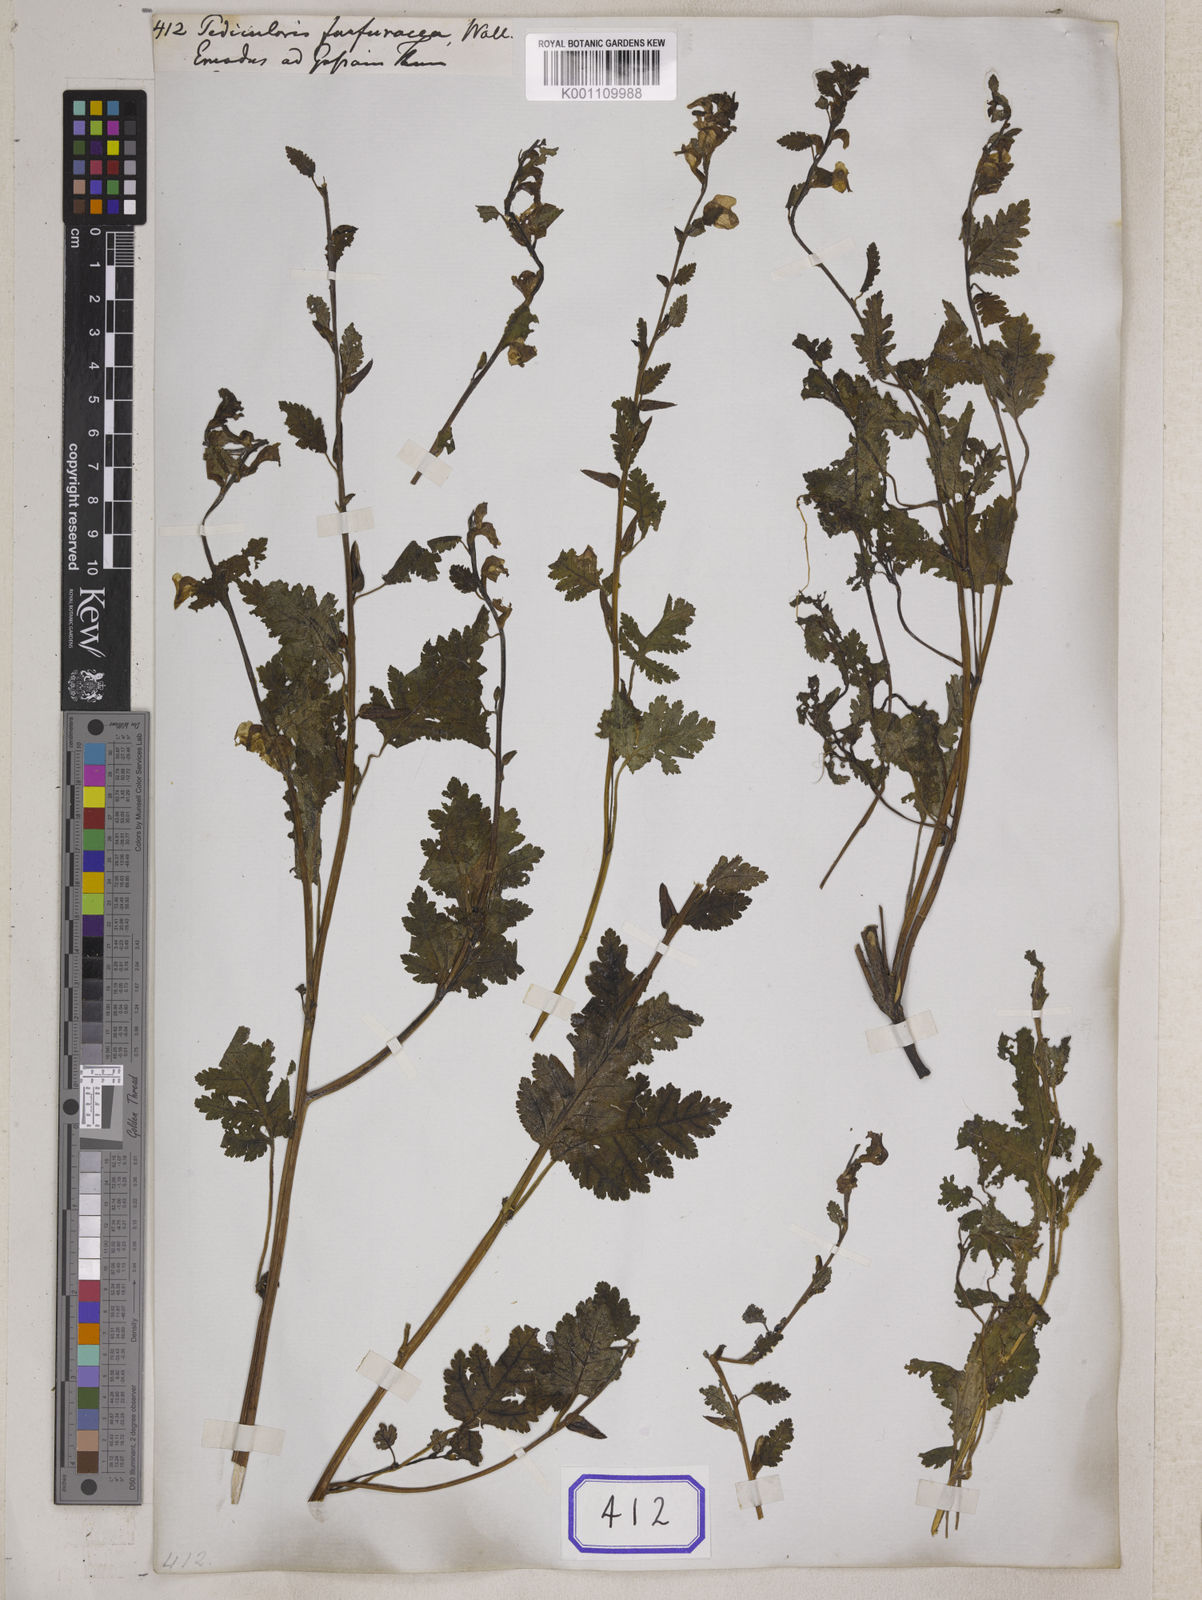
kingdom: Plantae
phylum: Tracheophyta
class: Magnoliopsida
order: Lamiales
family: Orobanchaceae
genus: Pedicularis
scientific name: Pedicularis
